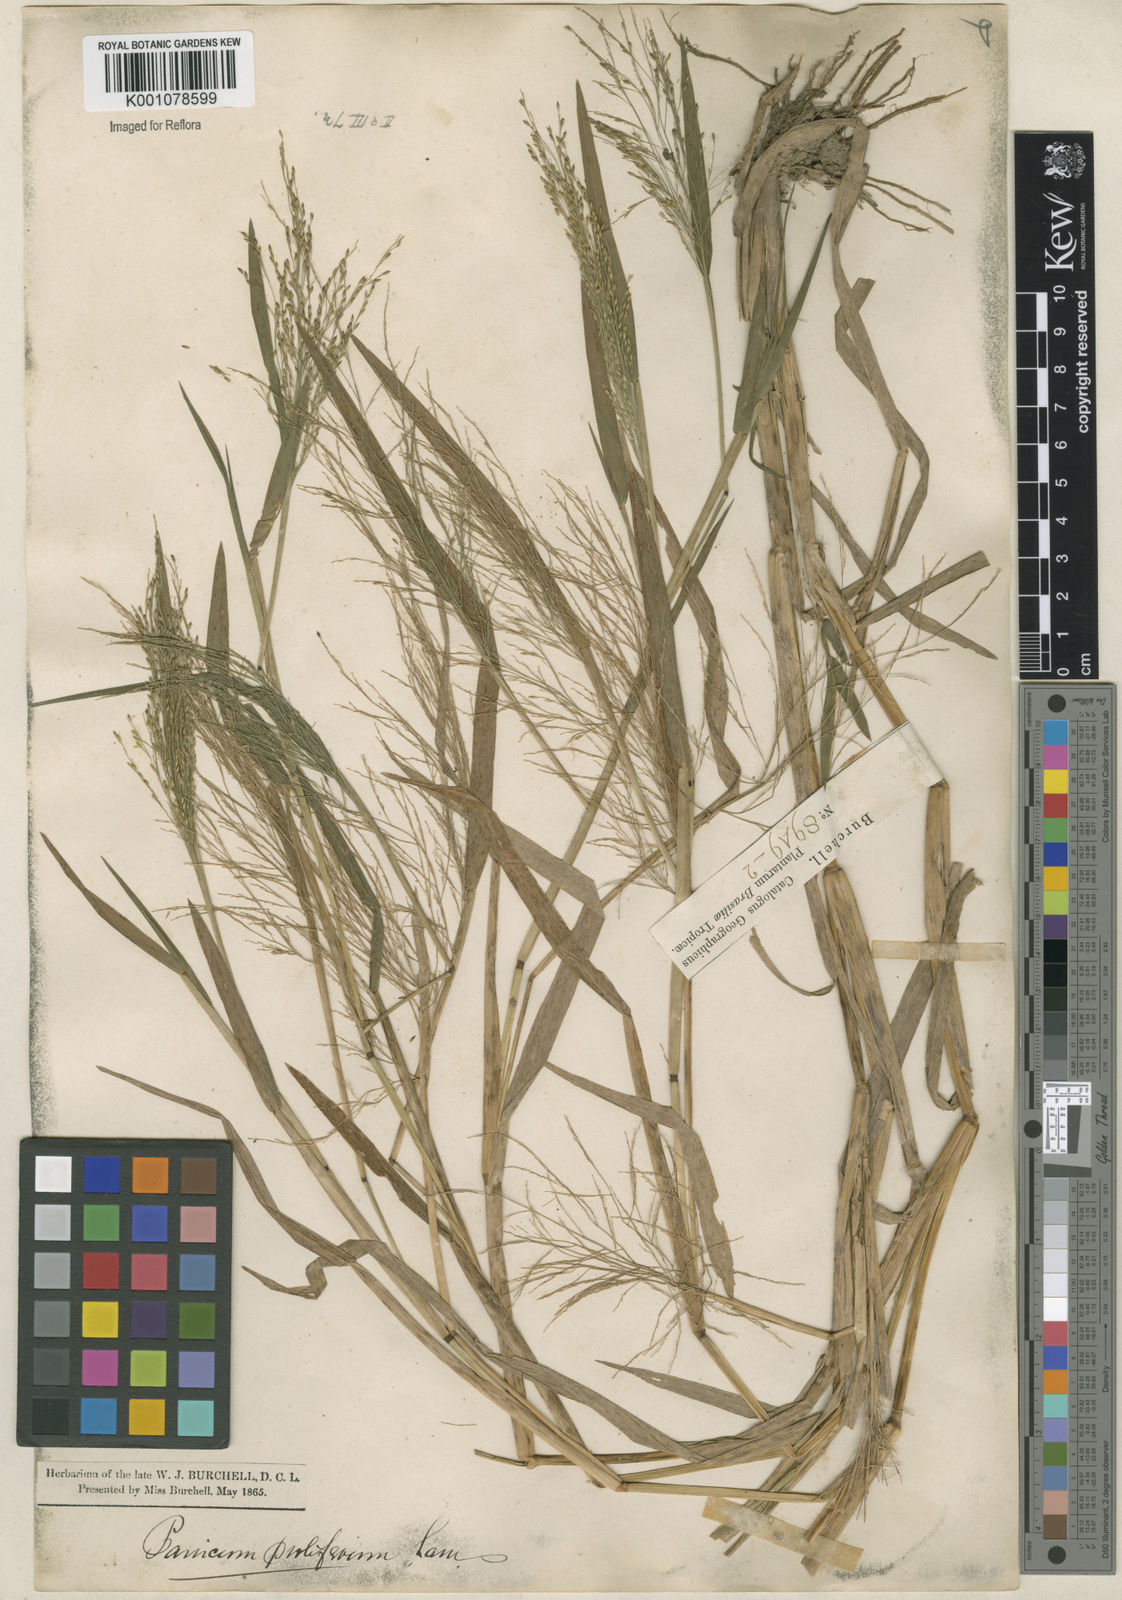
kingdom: Plantae
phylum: Tracheophyta
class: Liliopsida
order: Poales
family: Poaceae
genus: Panicum
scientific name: Panicum dichotomiflorum
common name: Autumn millet
